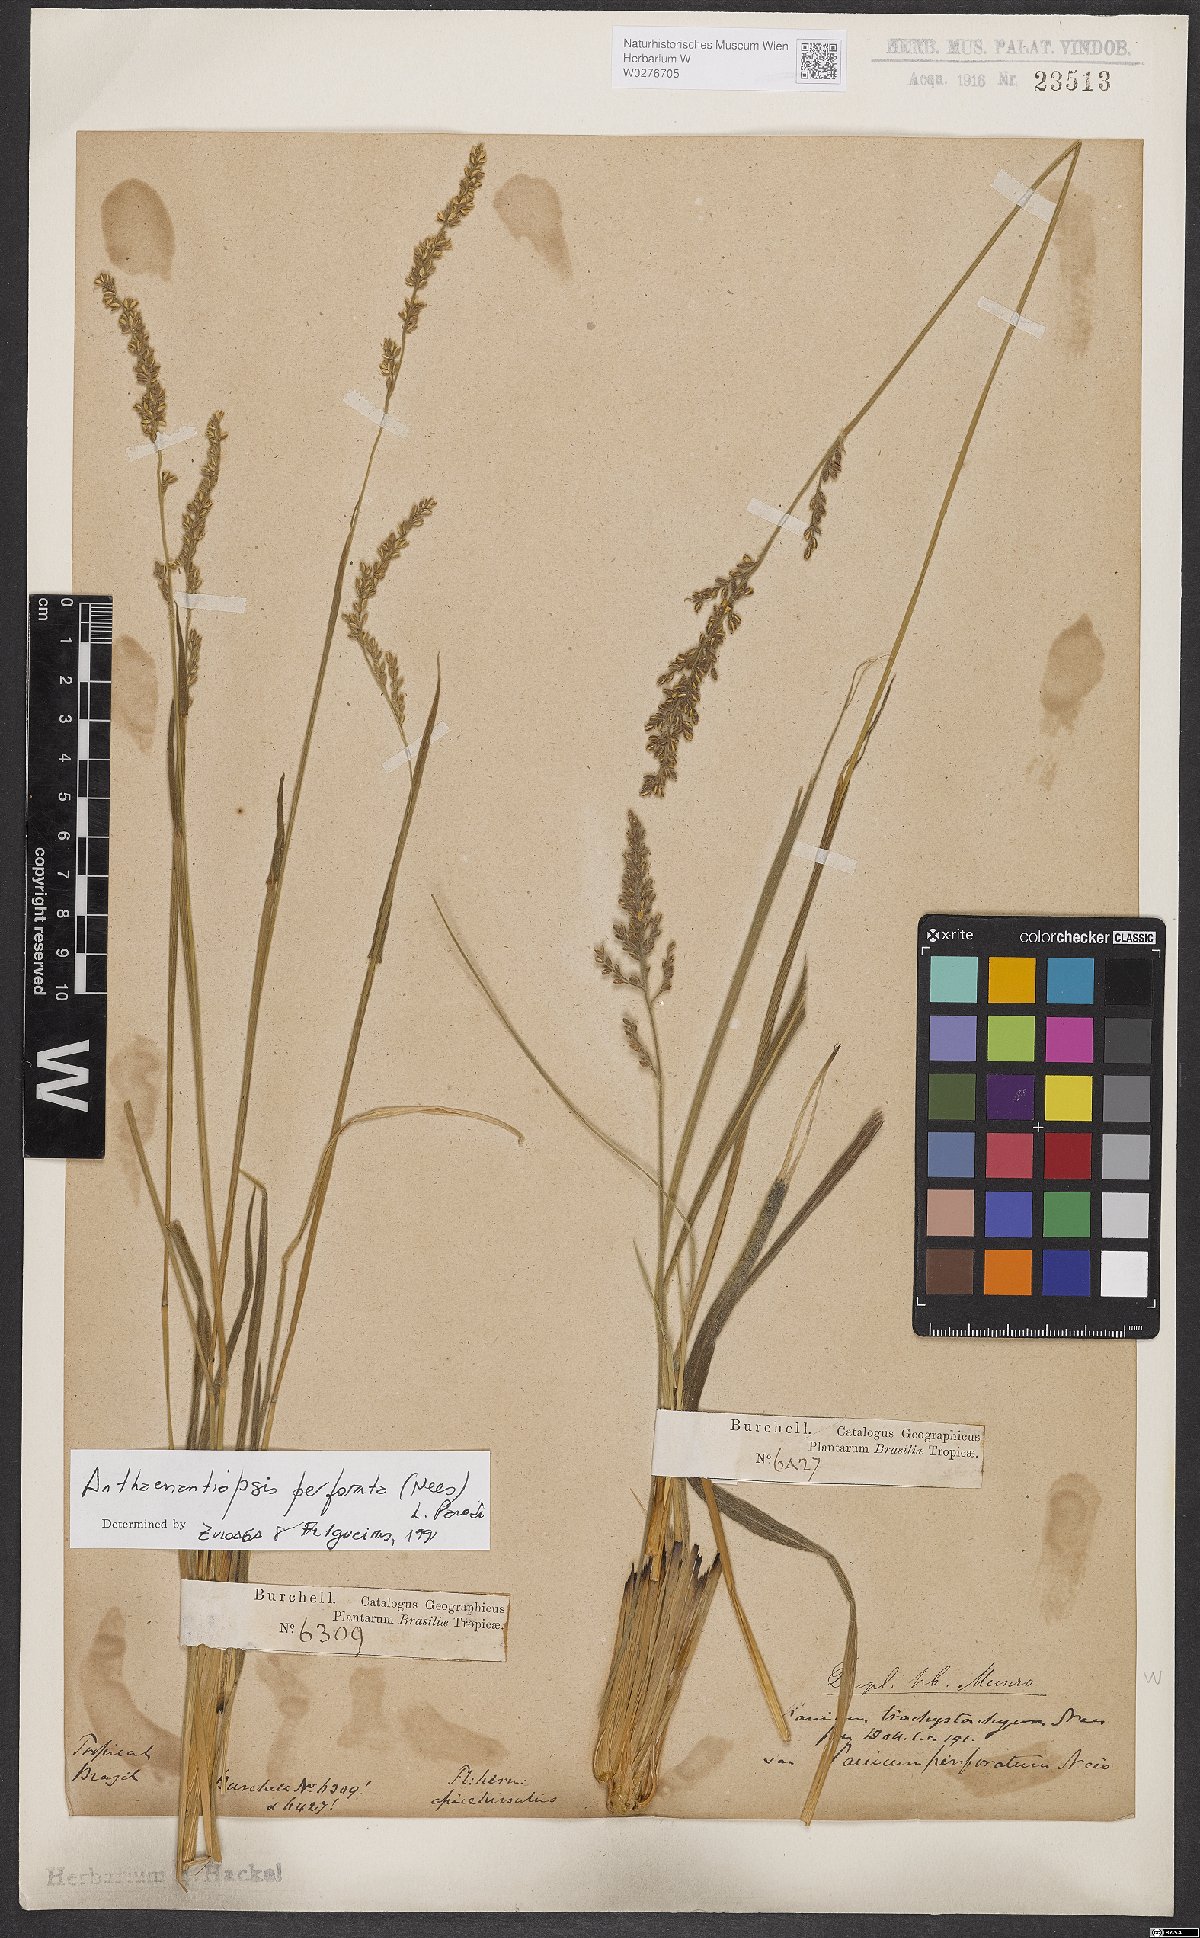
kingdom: Plantae
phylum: Tracheophyta
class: Liliopsida
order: Poales
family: Poaceae
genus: Anthaenantiopsis
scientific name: Anthaenantiopsis perforata
